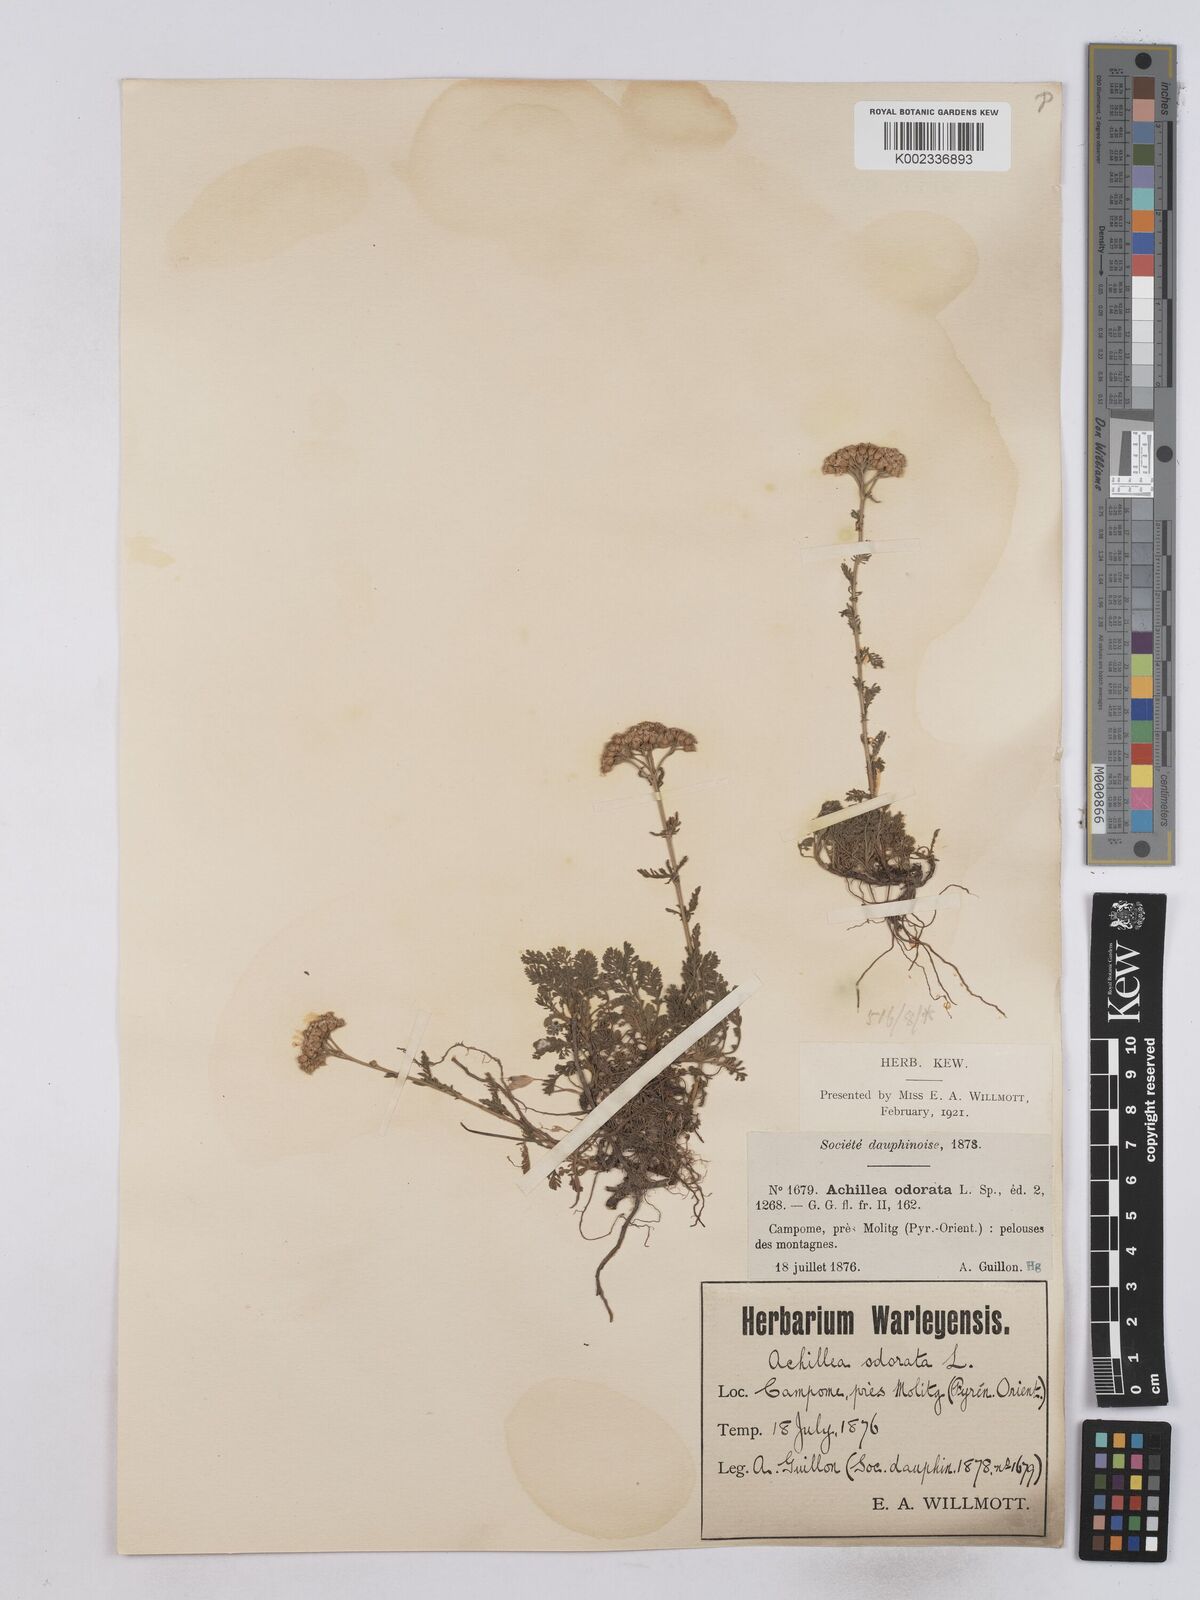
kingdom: Plantae
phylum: Tracheophyta
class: Magnoliopsida
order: Asterales
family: Asteraceae
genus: Achillea
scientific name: Achillea odorata
